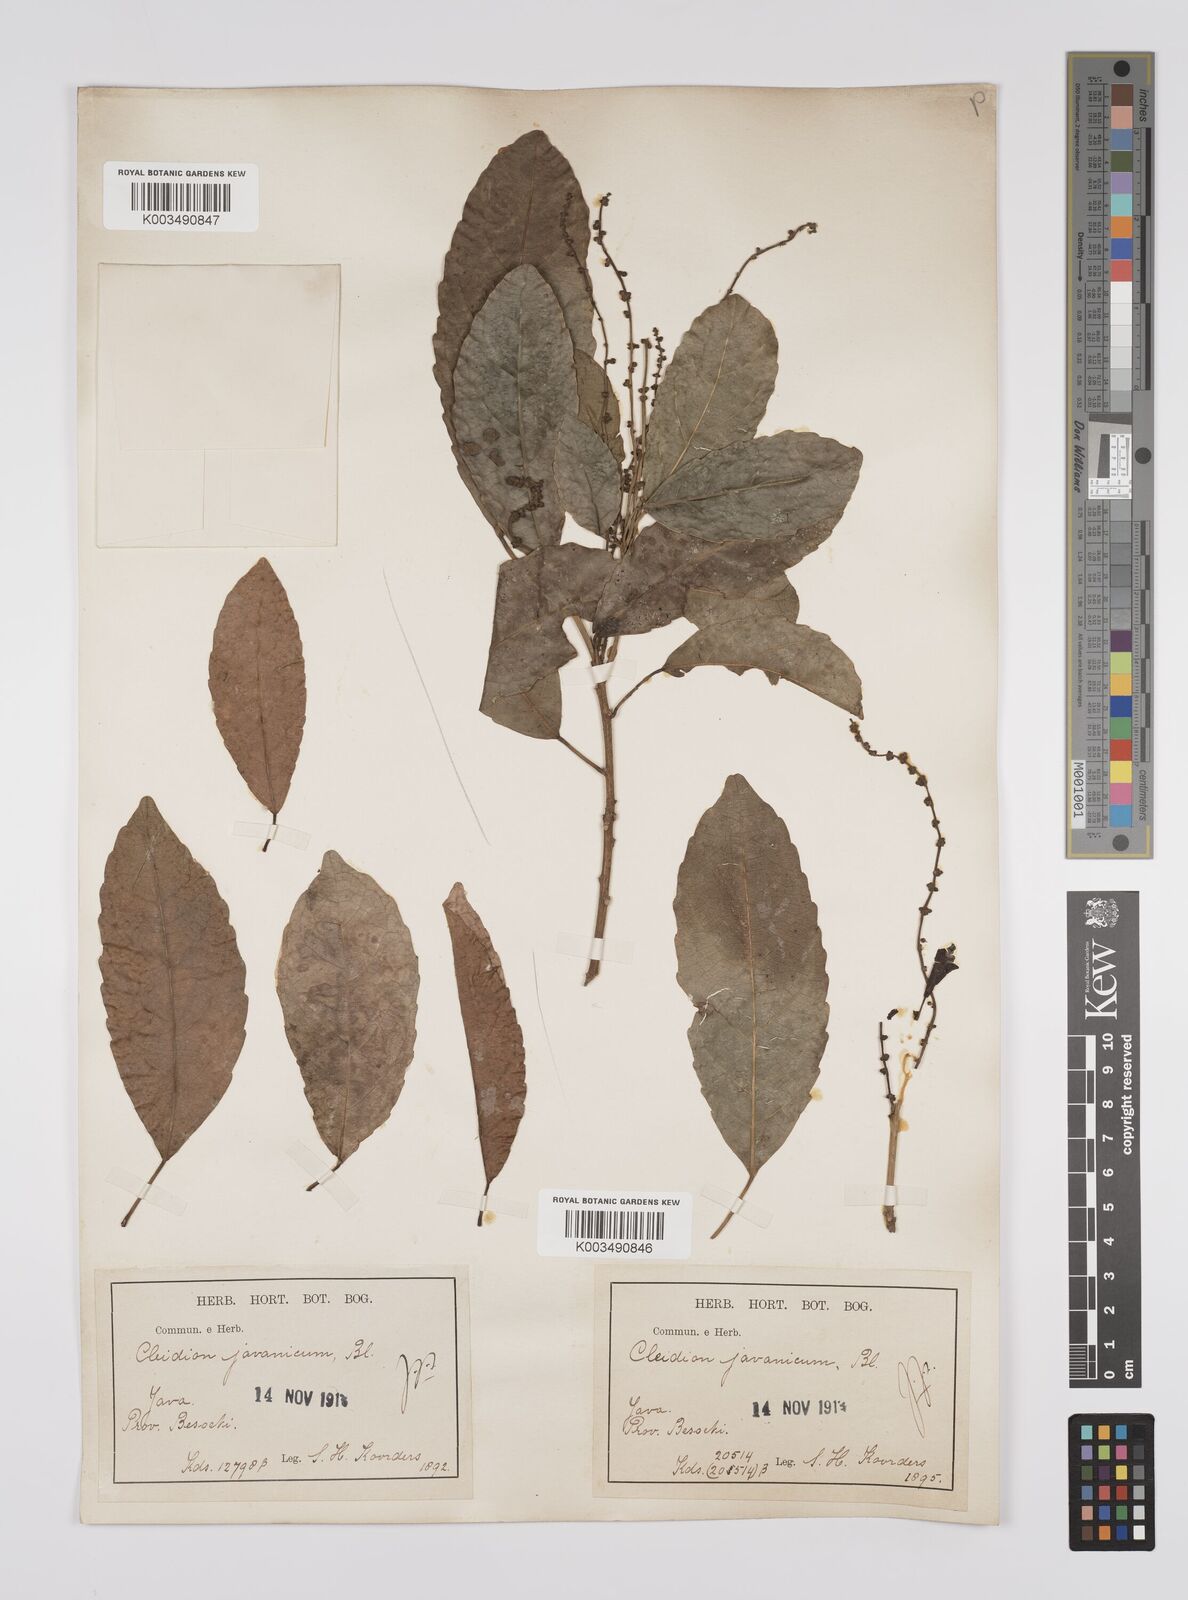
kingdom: Plantae
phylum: Tracheophyta
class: Magnoliopsida
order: Malpighiales
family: Euphorbiaceae
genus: Acalypha
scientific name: Acalypha spiciflora
